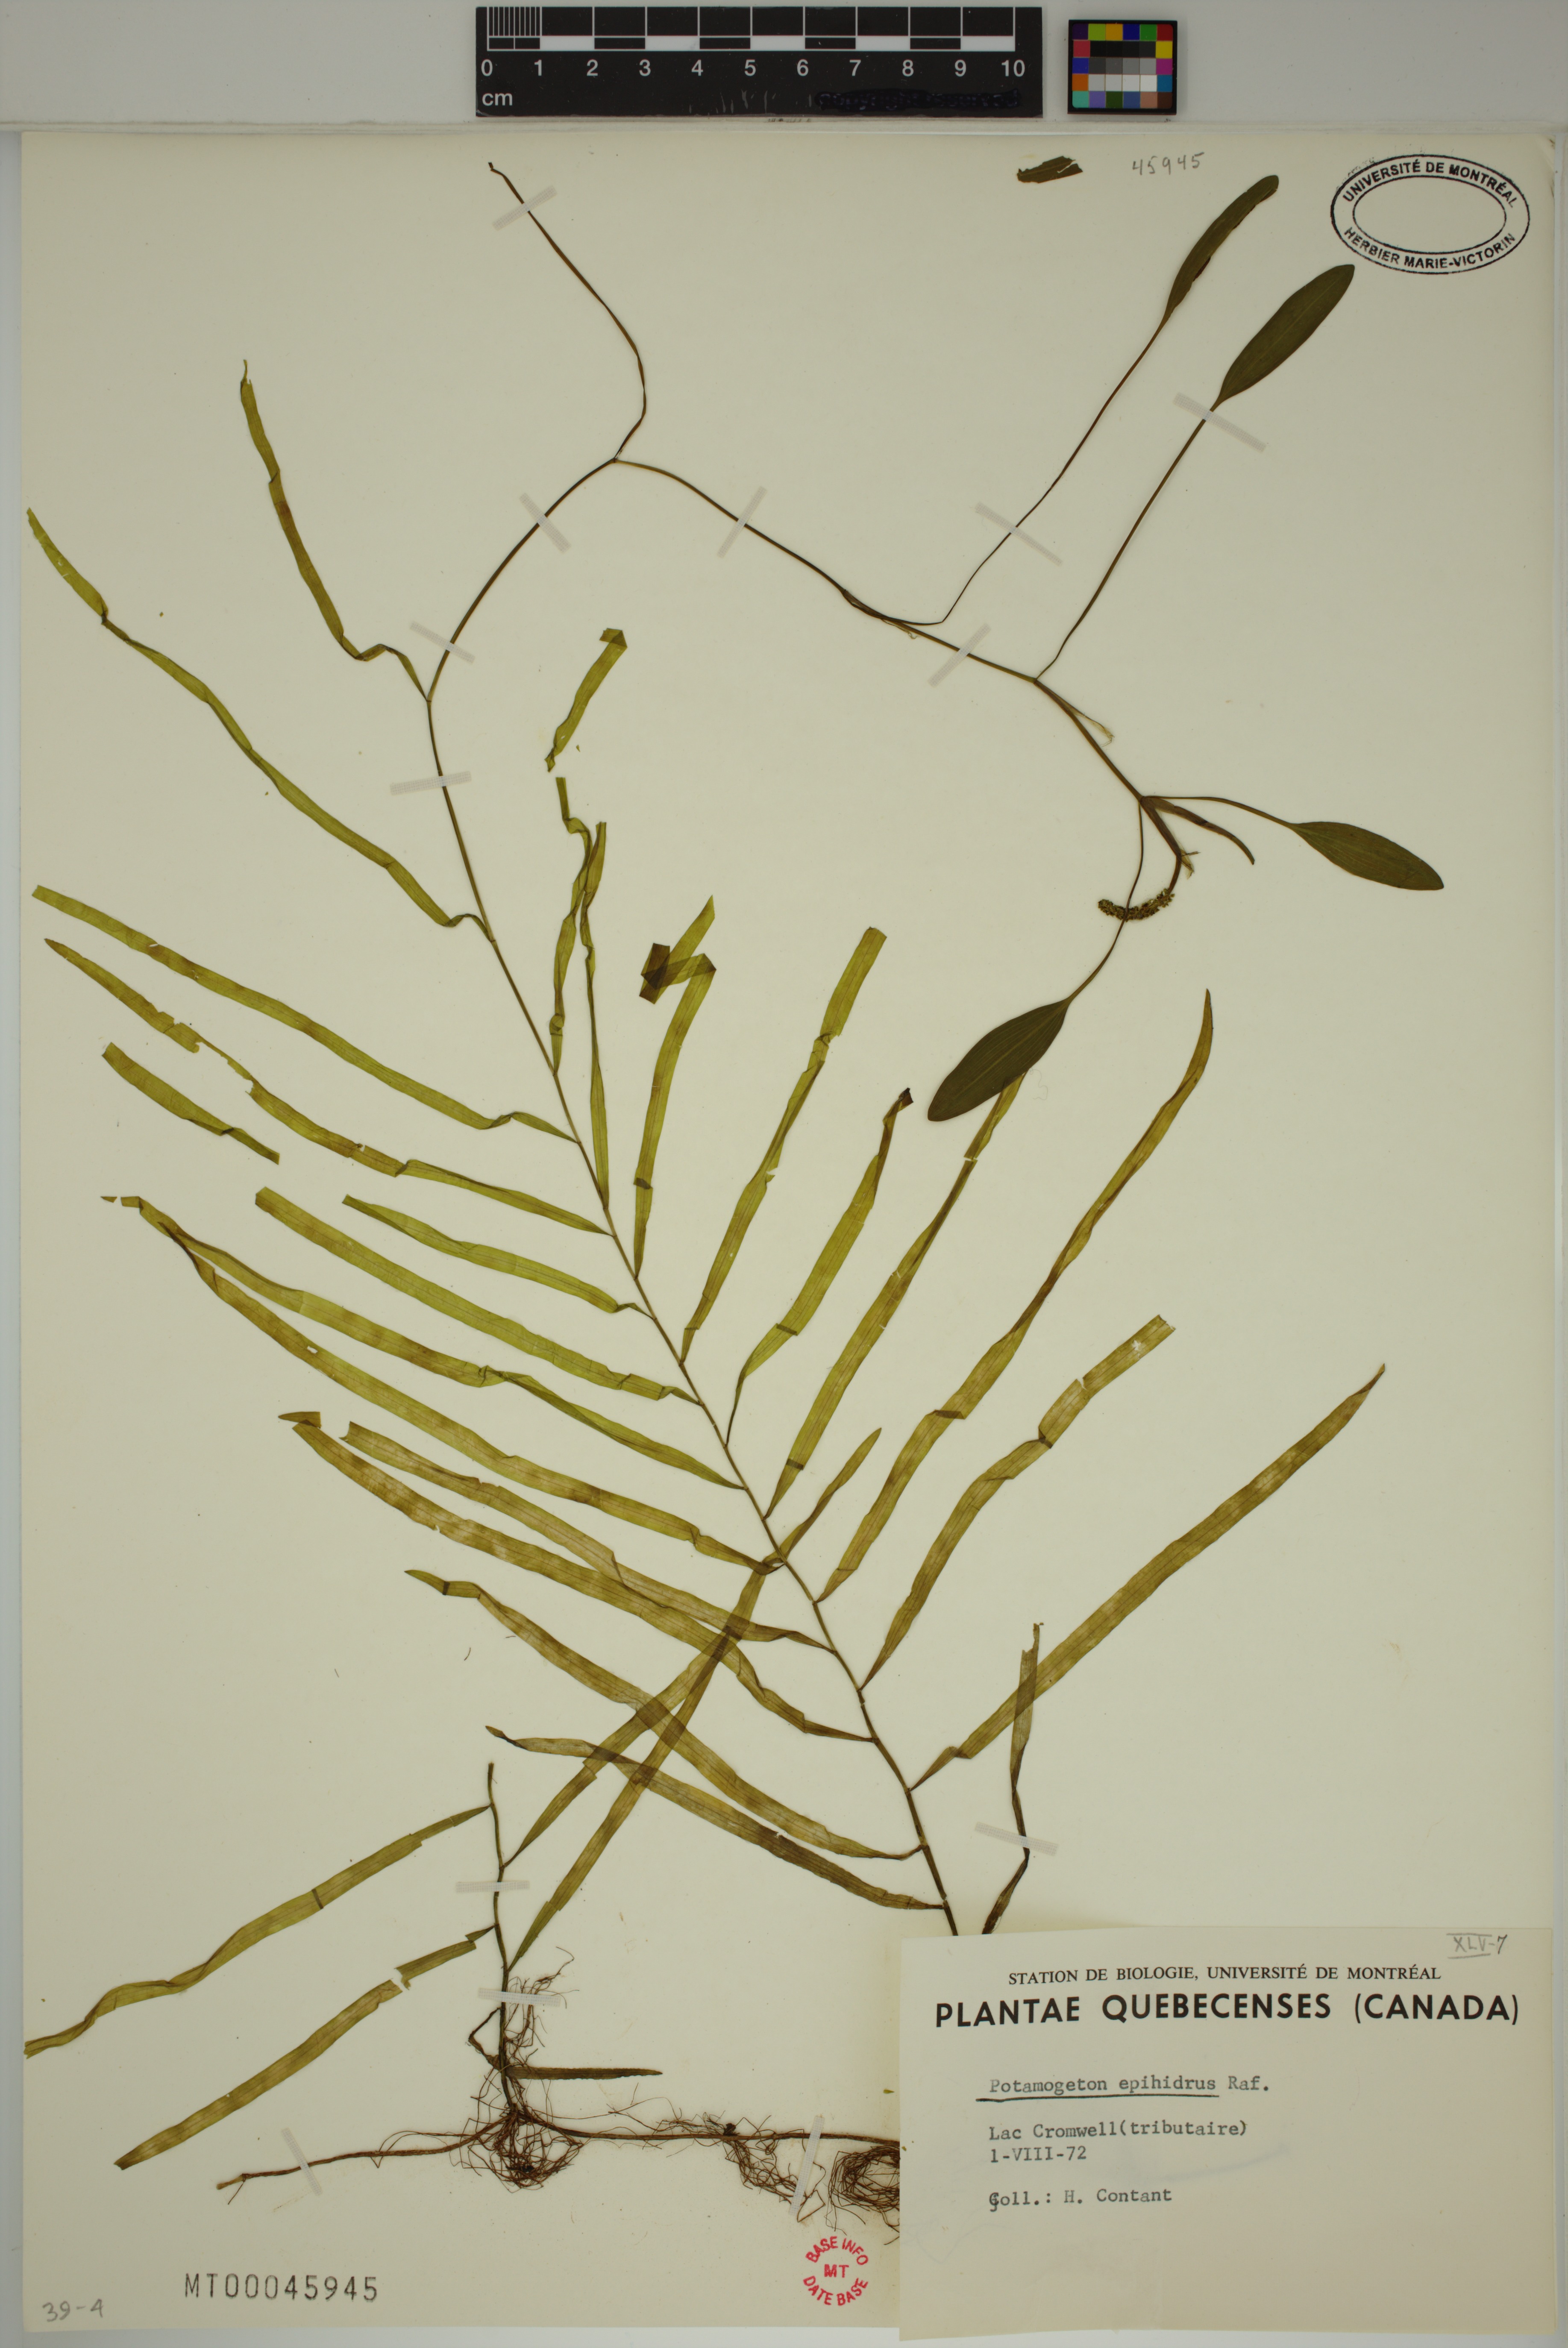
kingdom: Plantae
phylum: Tracheophyta
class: Liliopsida
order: Alismatales
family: Potamogetonaceae
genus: Potamogeton
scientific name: Potamogeton epihydrus
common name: American pondweed
